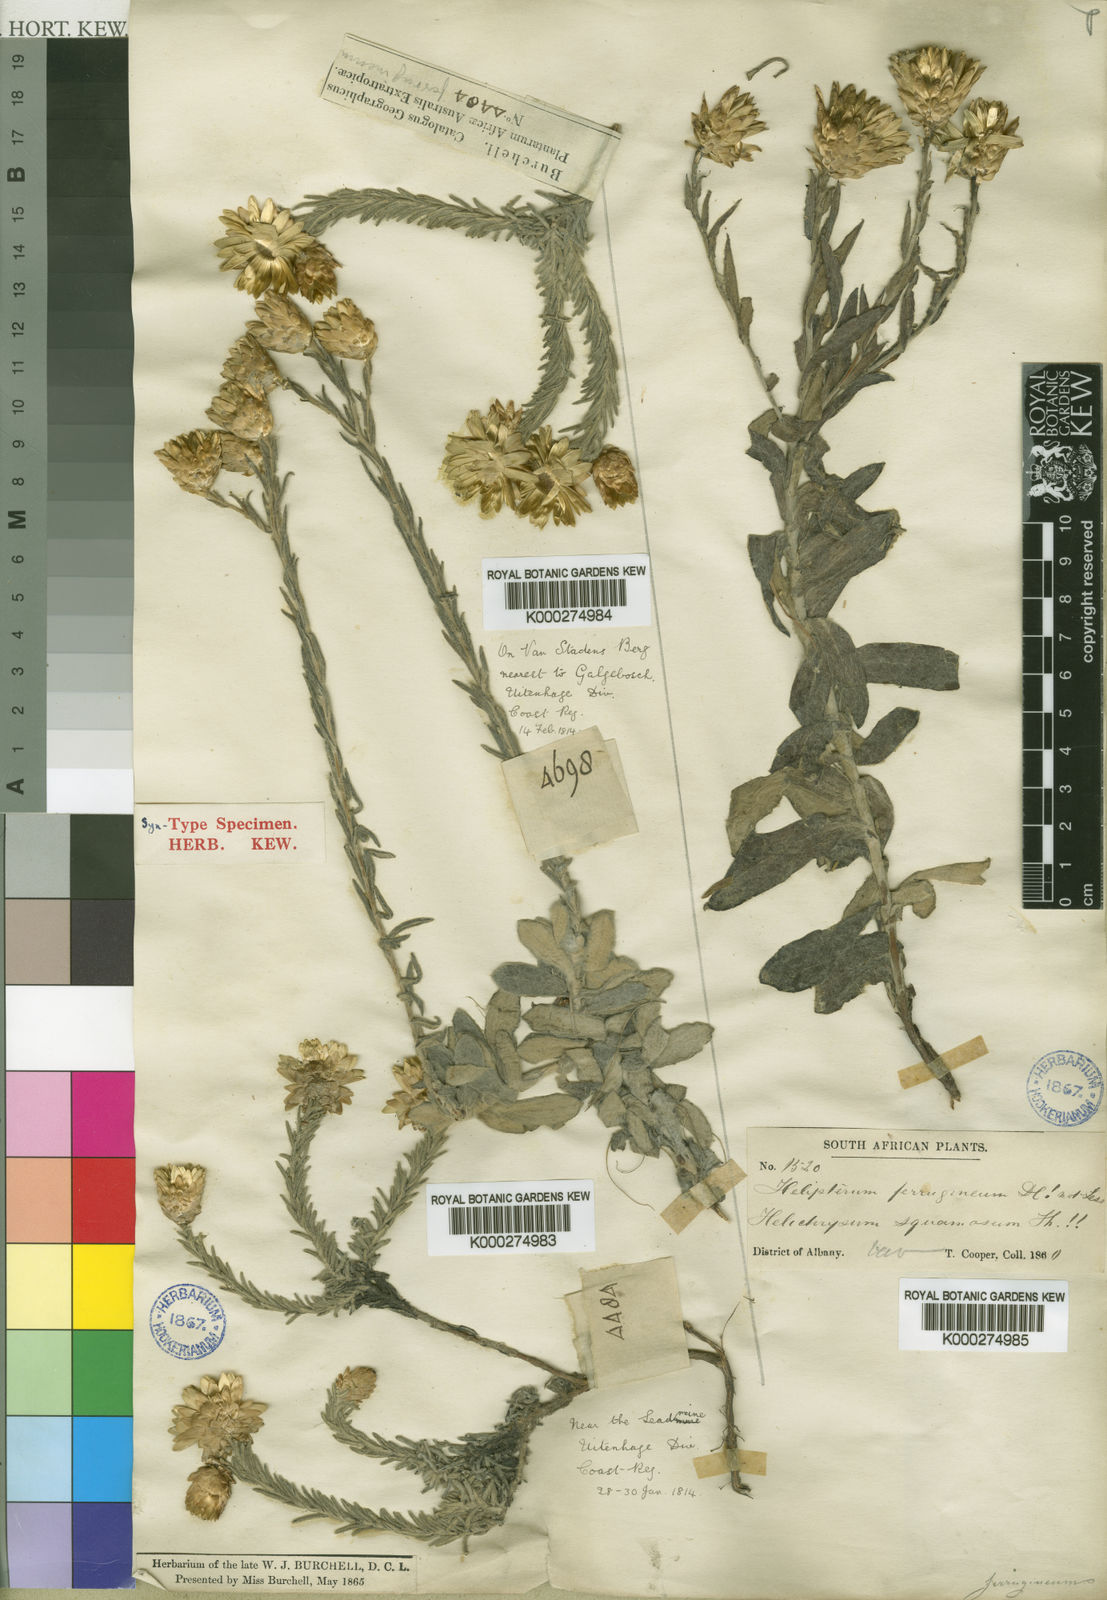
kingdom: Plantae
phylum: Tracheophyta
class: Magnoliopsida
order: Asterales
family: Asteraceae
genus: Edmondia
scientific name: Edmondia pinifolia
